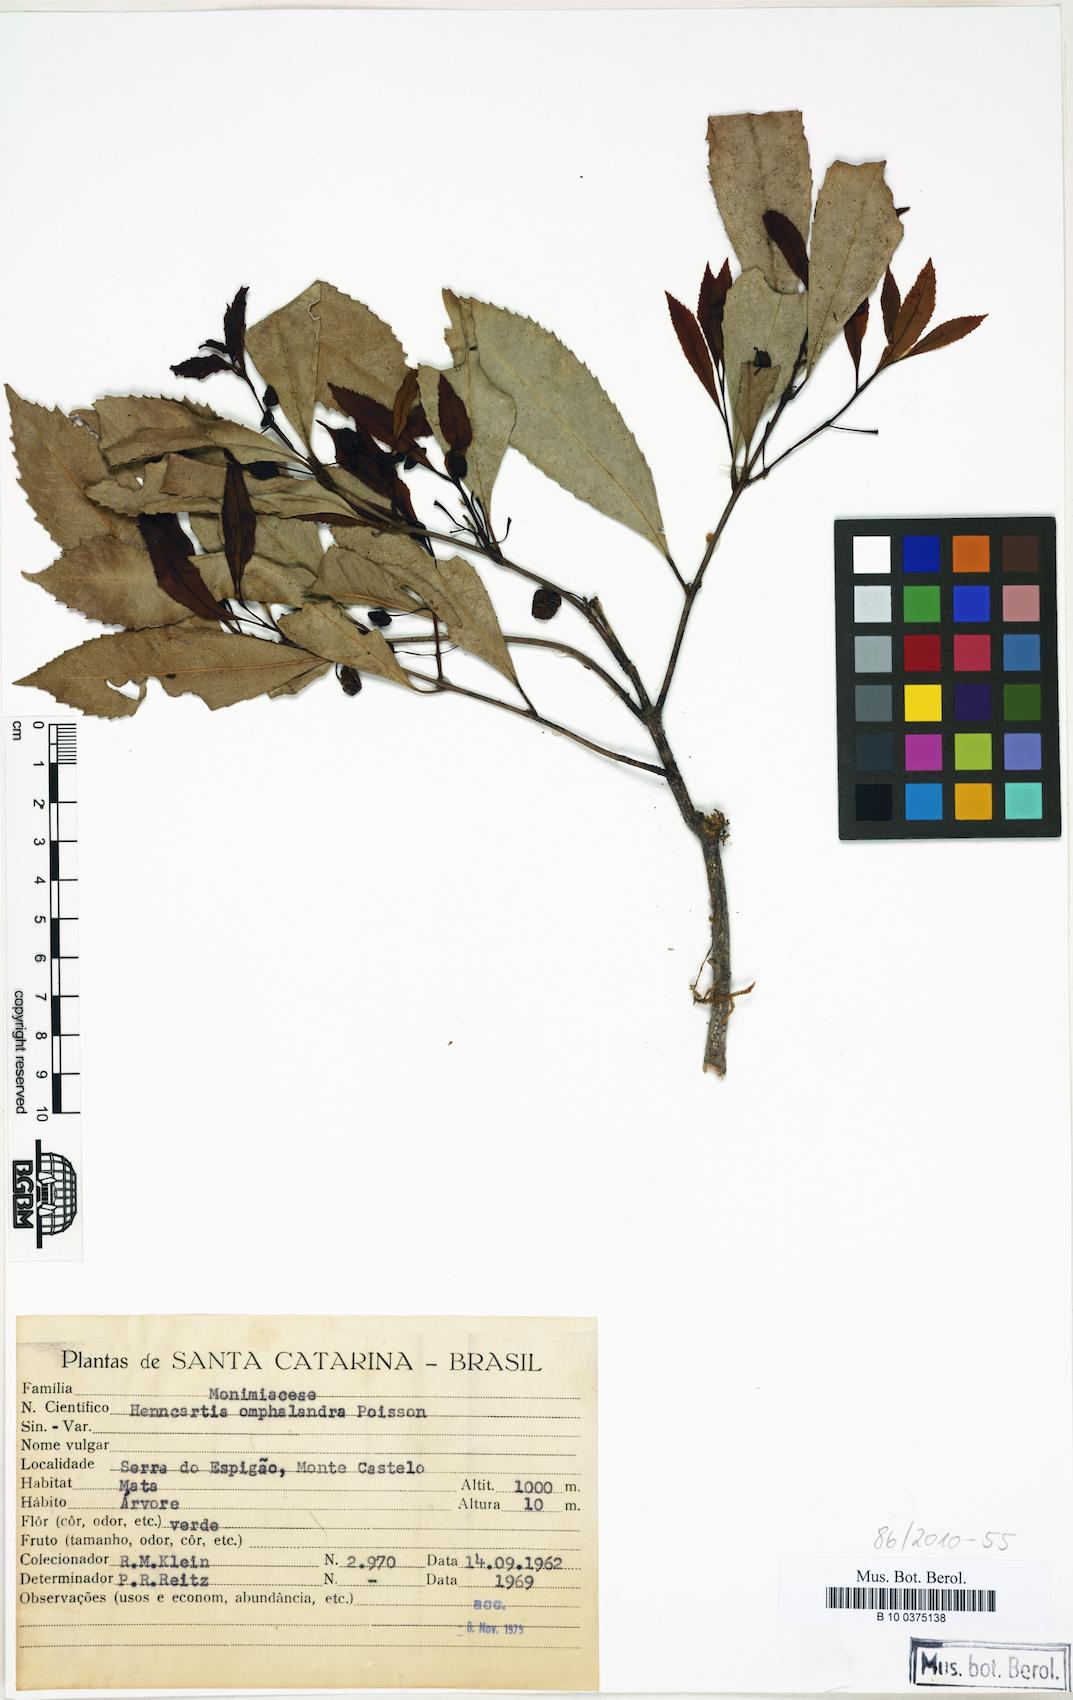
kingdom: Plantae
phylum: Tracheophyta
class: Magnoliopsida
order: Laurales
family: Monimiaceae
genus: Hennecartia
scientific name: Hennecartia omphalandra
